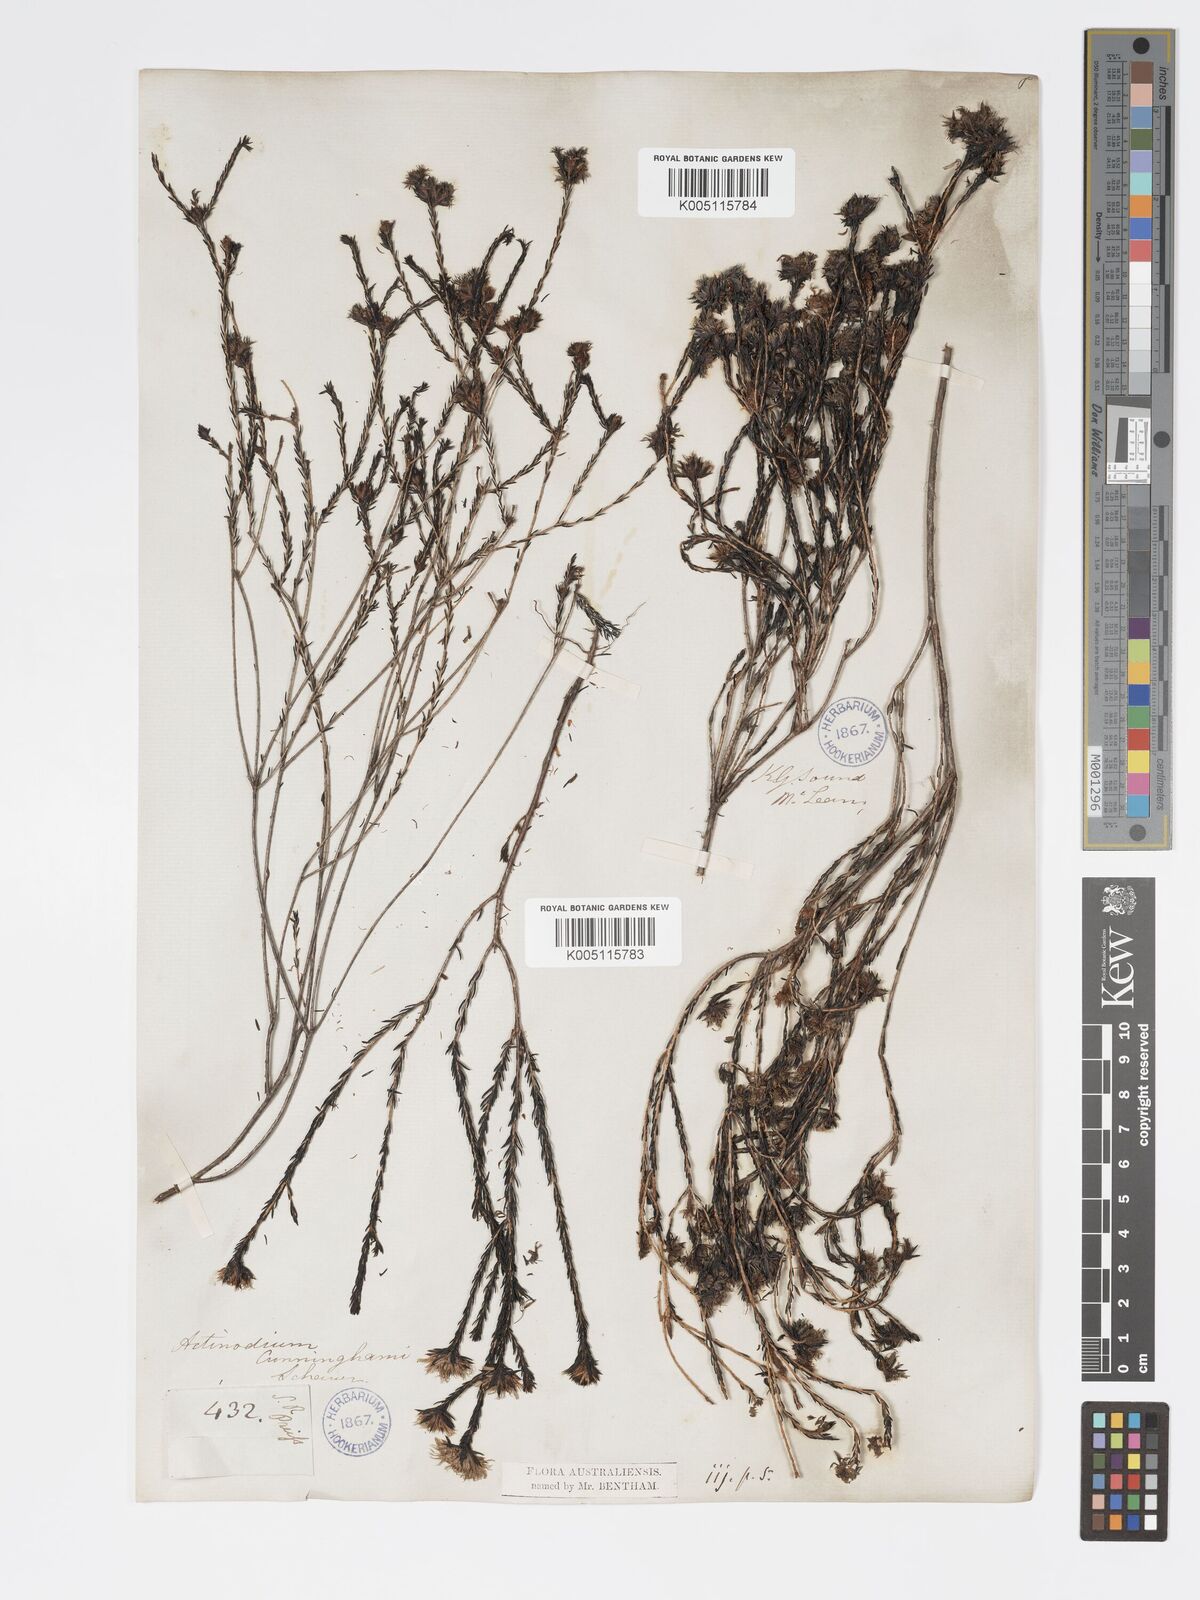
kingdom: Plantae
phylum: Tracheophyta
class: Magnoliopsida
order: Myrtales
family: Myrtaceae
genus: Actinodium
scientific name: Actinodium cunninghamii
